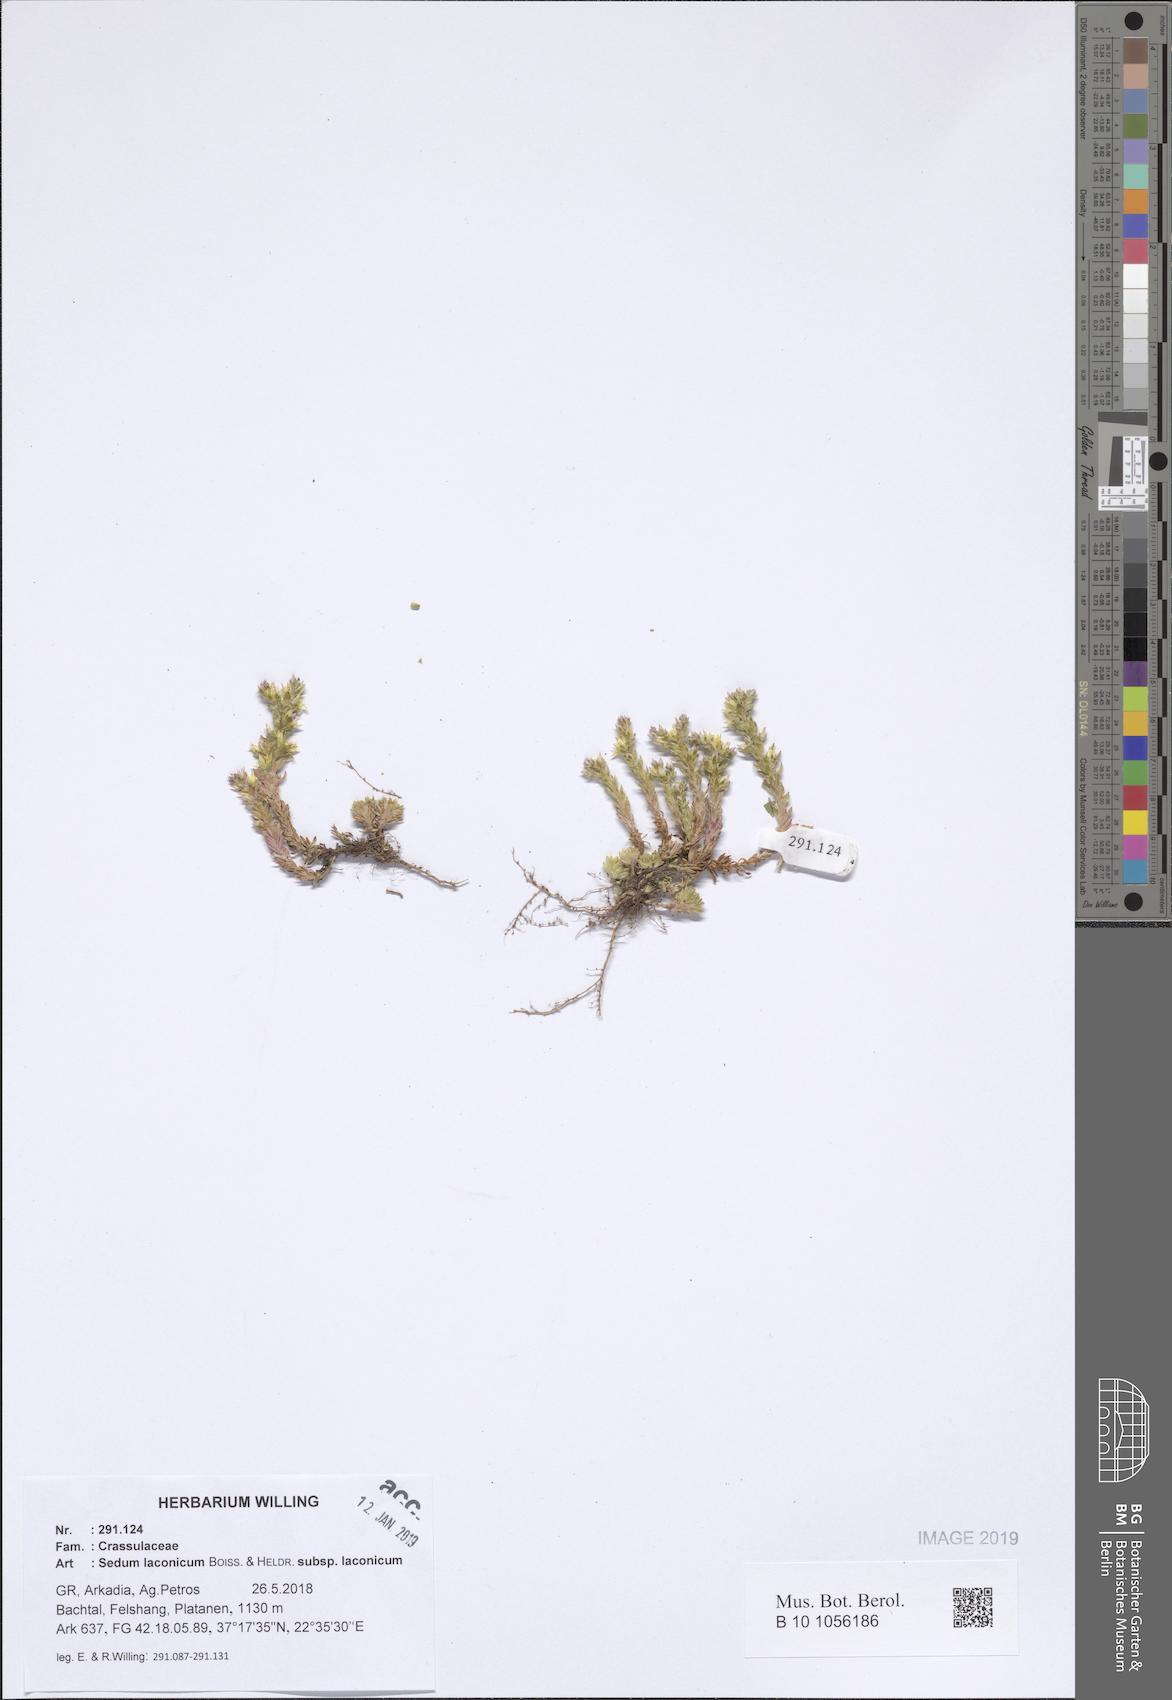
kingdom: Plantae
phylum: Tracheophyta
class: Magnoliopsida
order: Saxifragales
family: Crassulaceae
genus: Sedum
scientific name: Sedum laconicum
